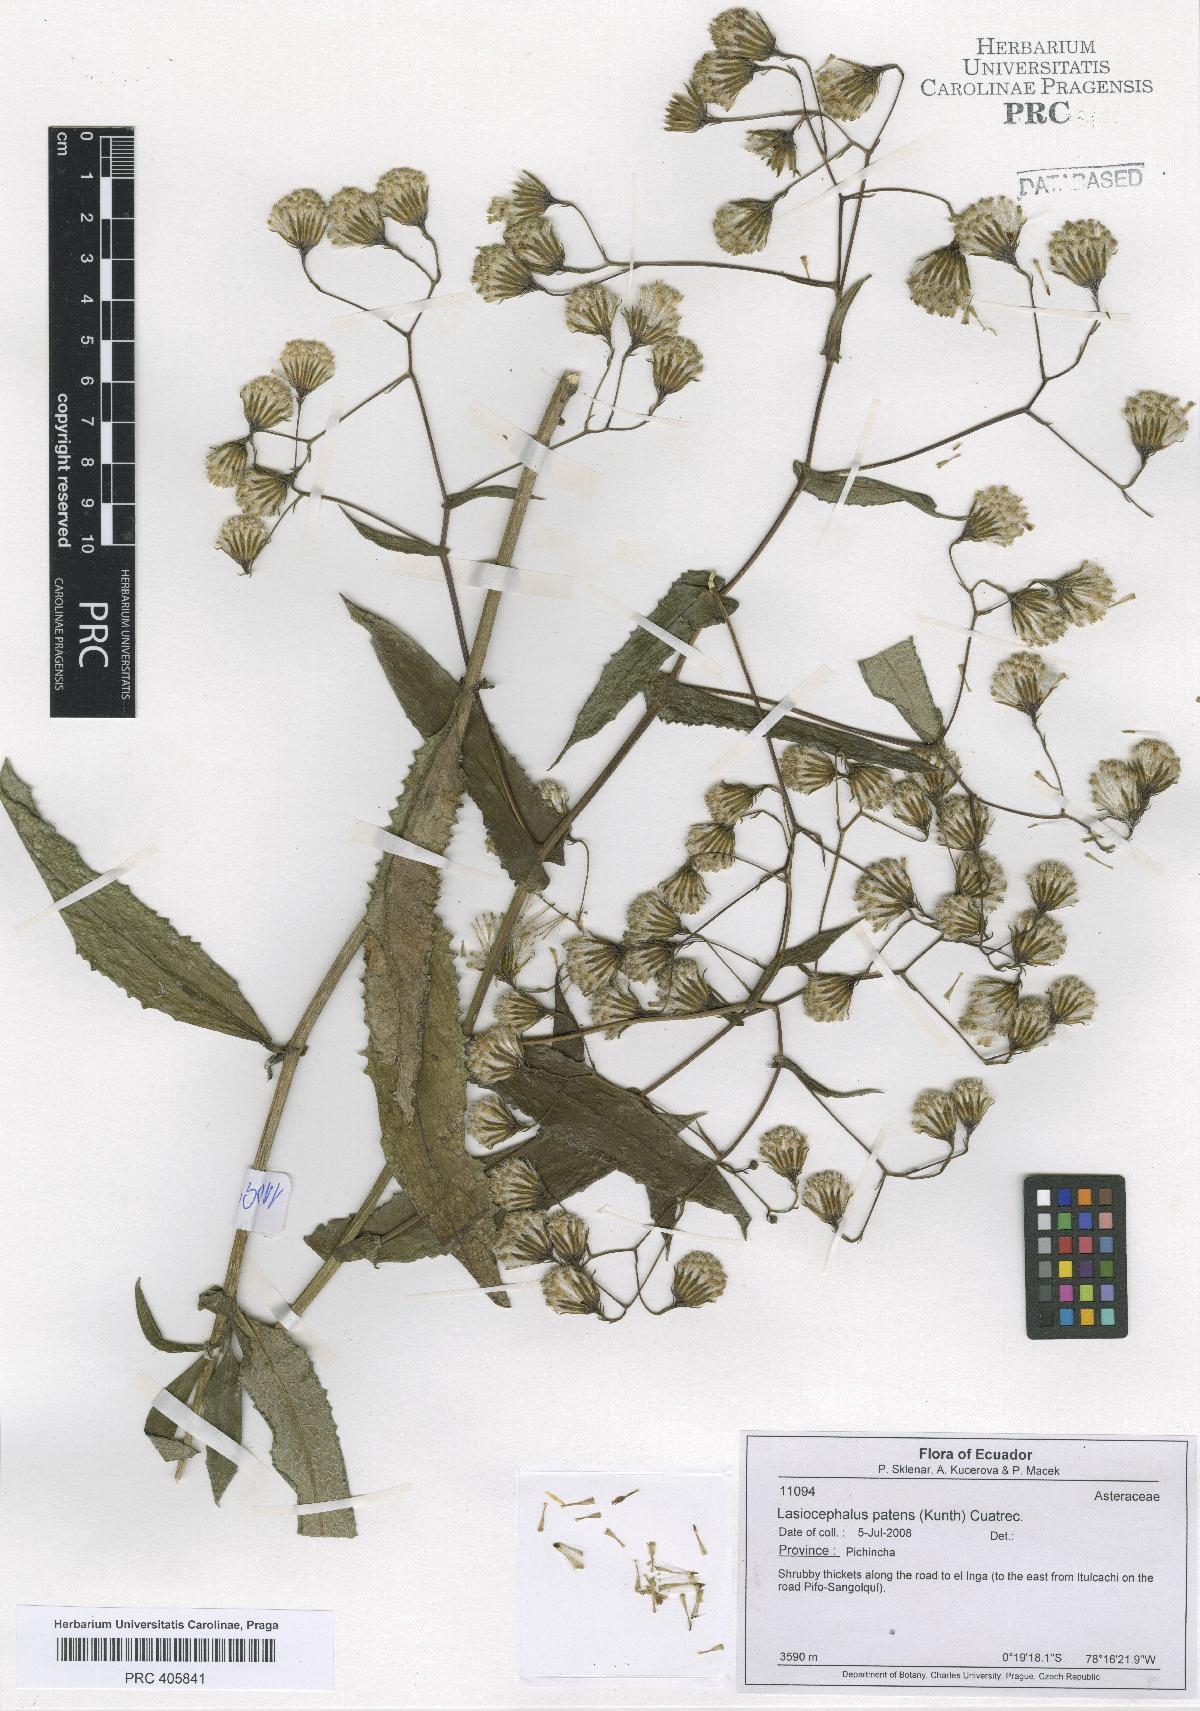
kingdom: Plantae
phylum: Tracheophyta
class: Magnoliopsida
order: Asterales
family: Asteraceae
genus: Aetheolaena
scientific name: Aetheolaena patens
